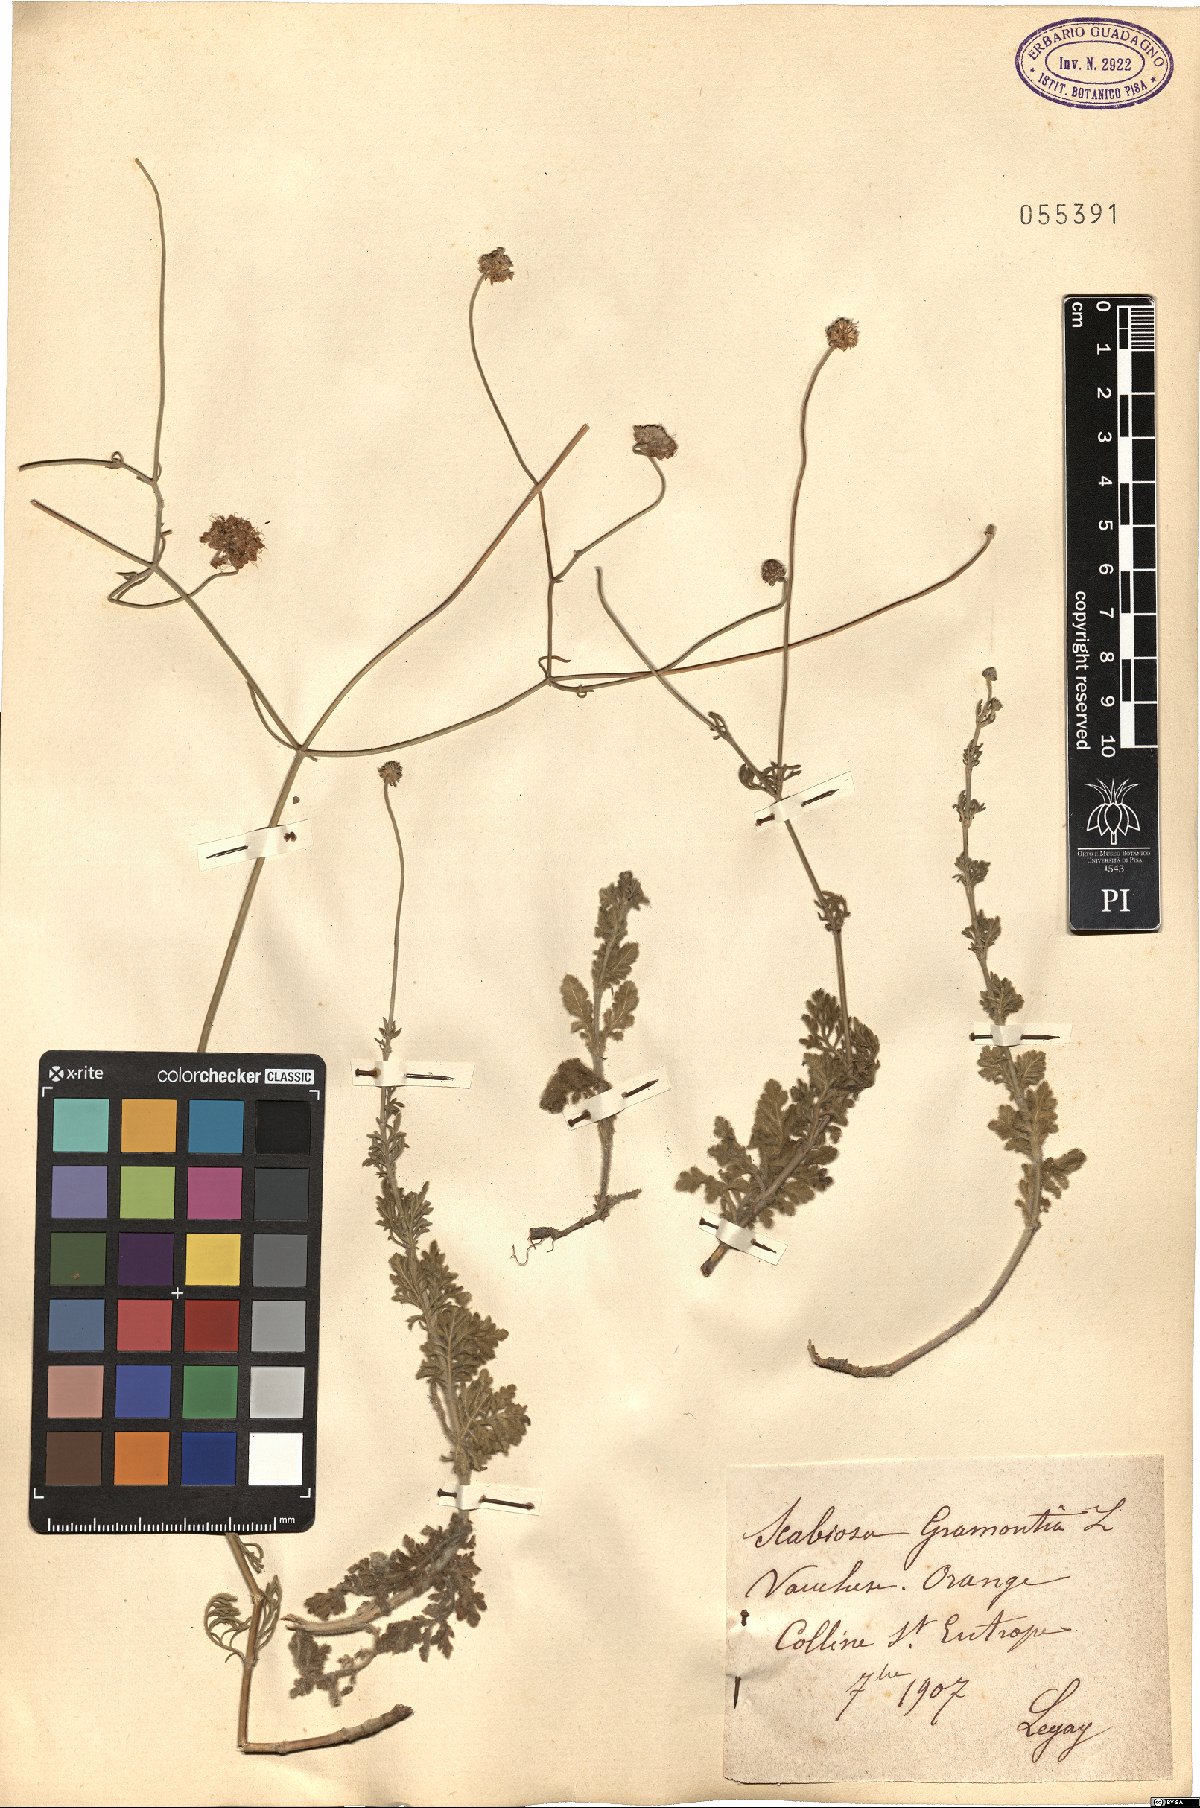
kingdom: Plantae
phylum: Tracheophyta
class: Magnoliopsida
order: Dipsacales
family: Caprifoliaceae
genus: Scabiosa
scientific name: Scabiosa triandra
